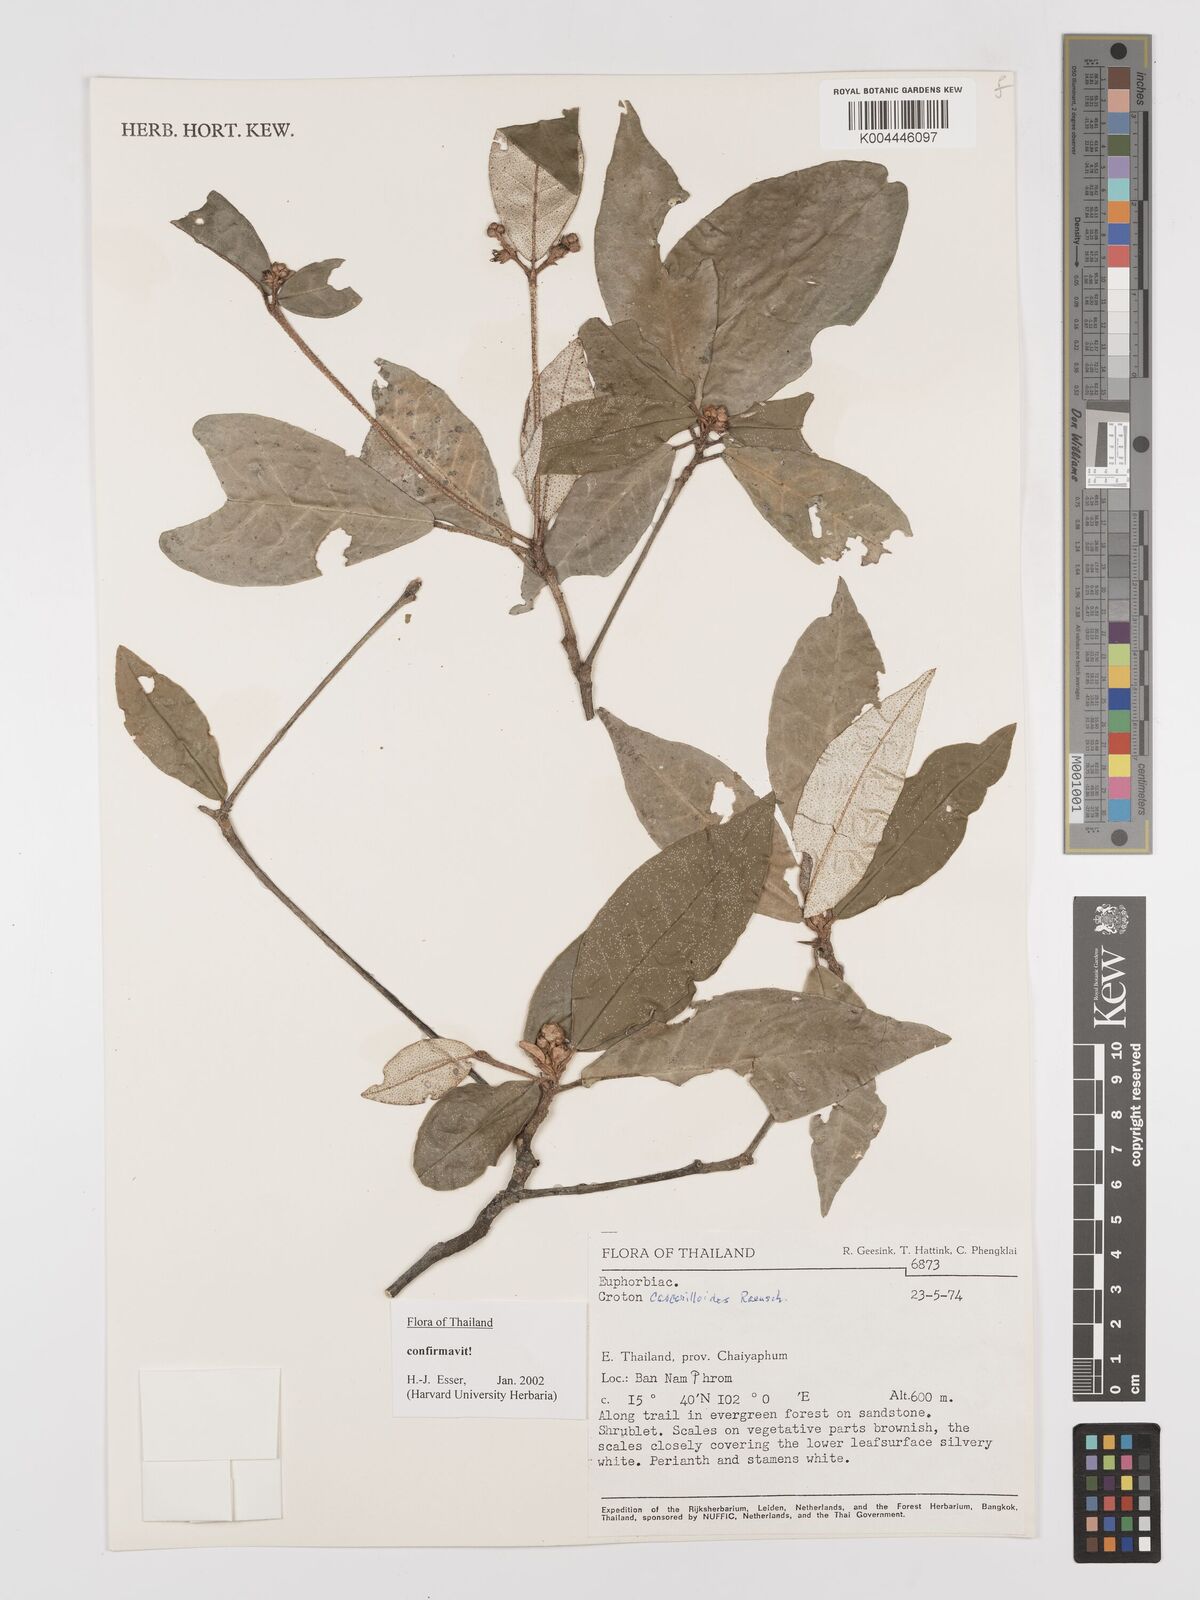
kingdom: Plantae
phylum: Tracheophyta
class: Magnoliopsida
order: Malpighiales
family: Euphorbiaceae
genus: Croton
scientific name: Croton cascarilloides
